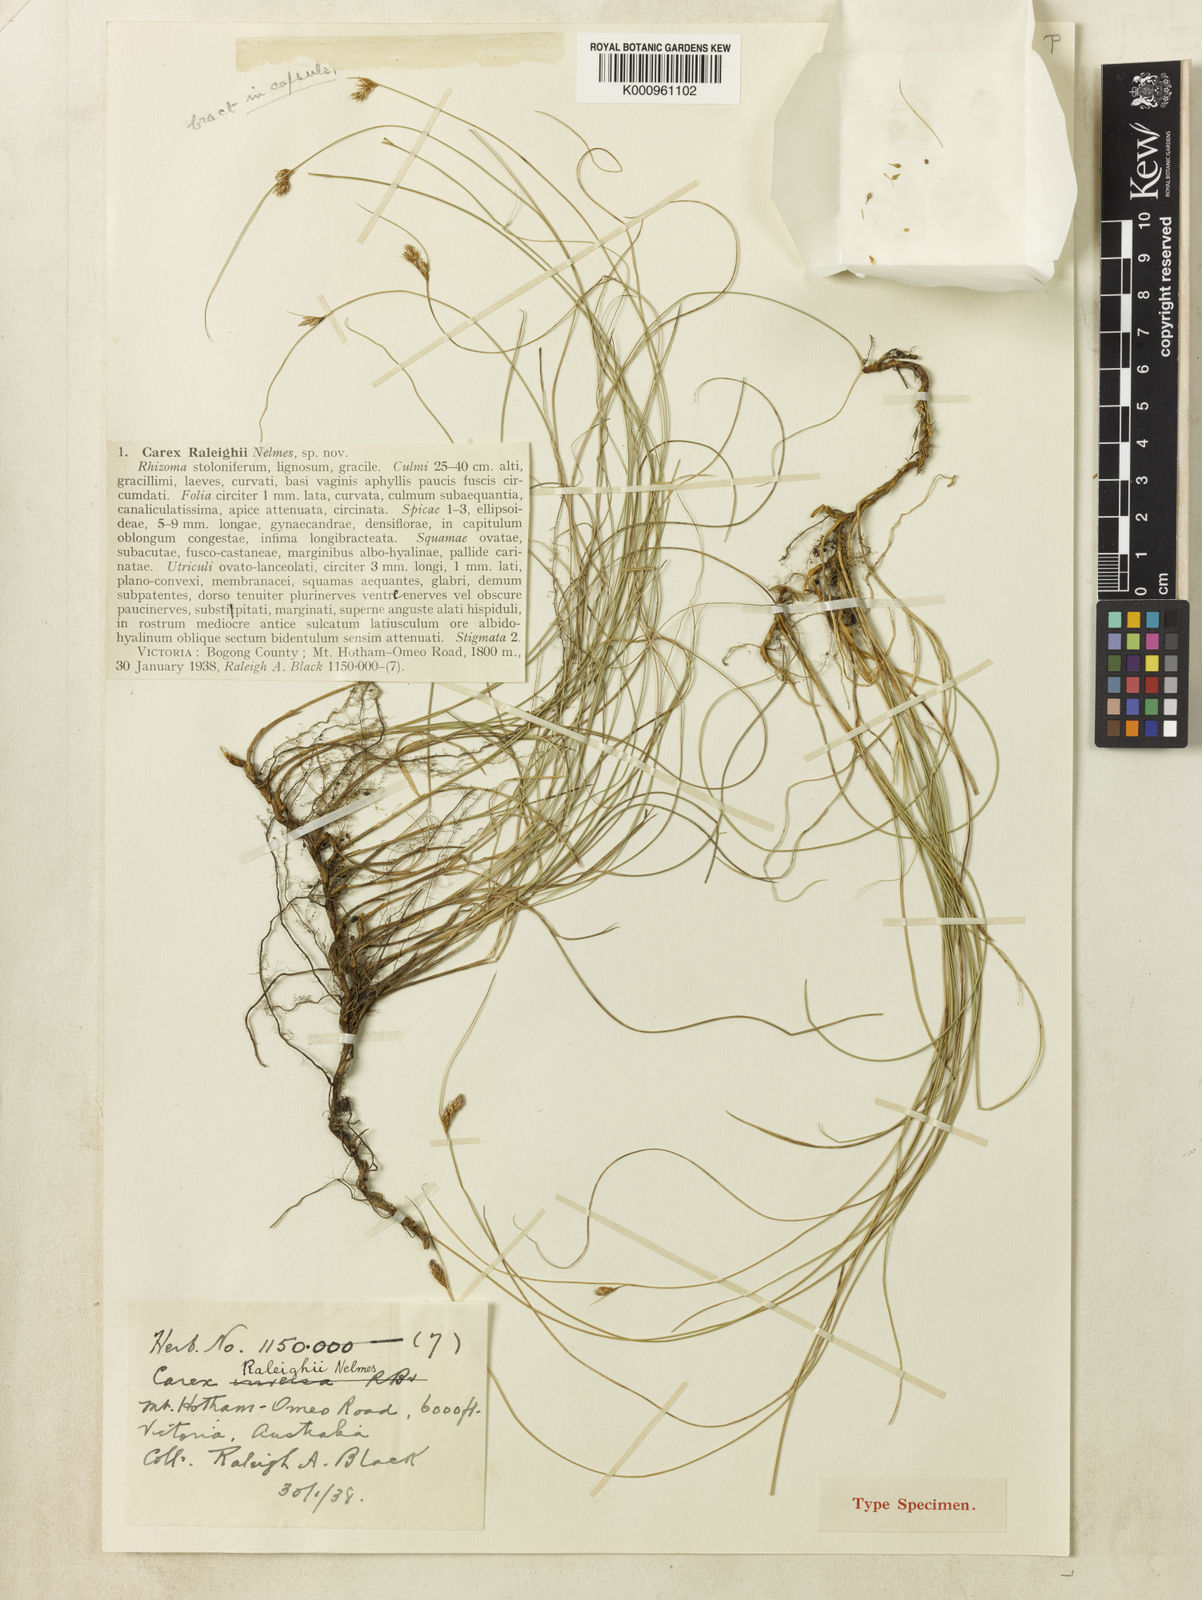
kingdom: Plantae
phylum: Tracheophyta
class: Liliopsida
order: Poales
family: Cyperaceae
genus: Carex
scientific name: Carex raleighii
